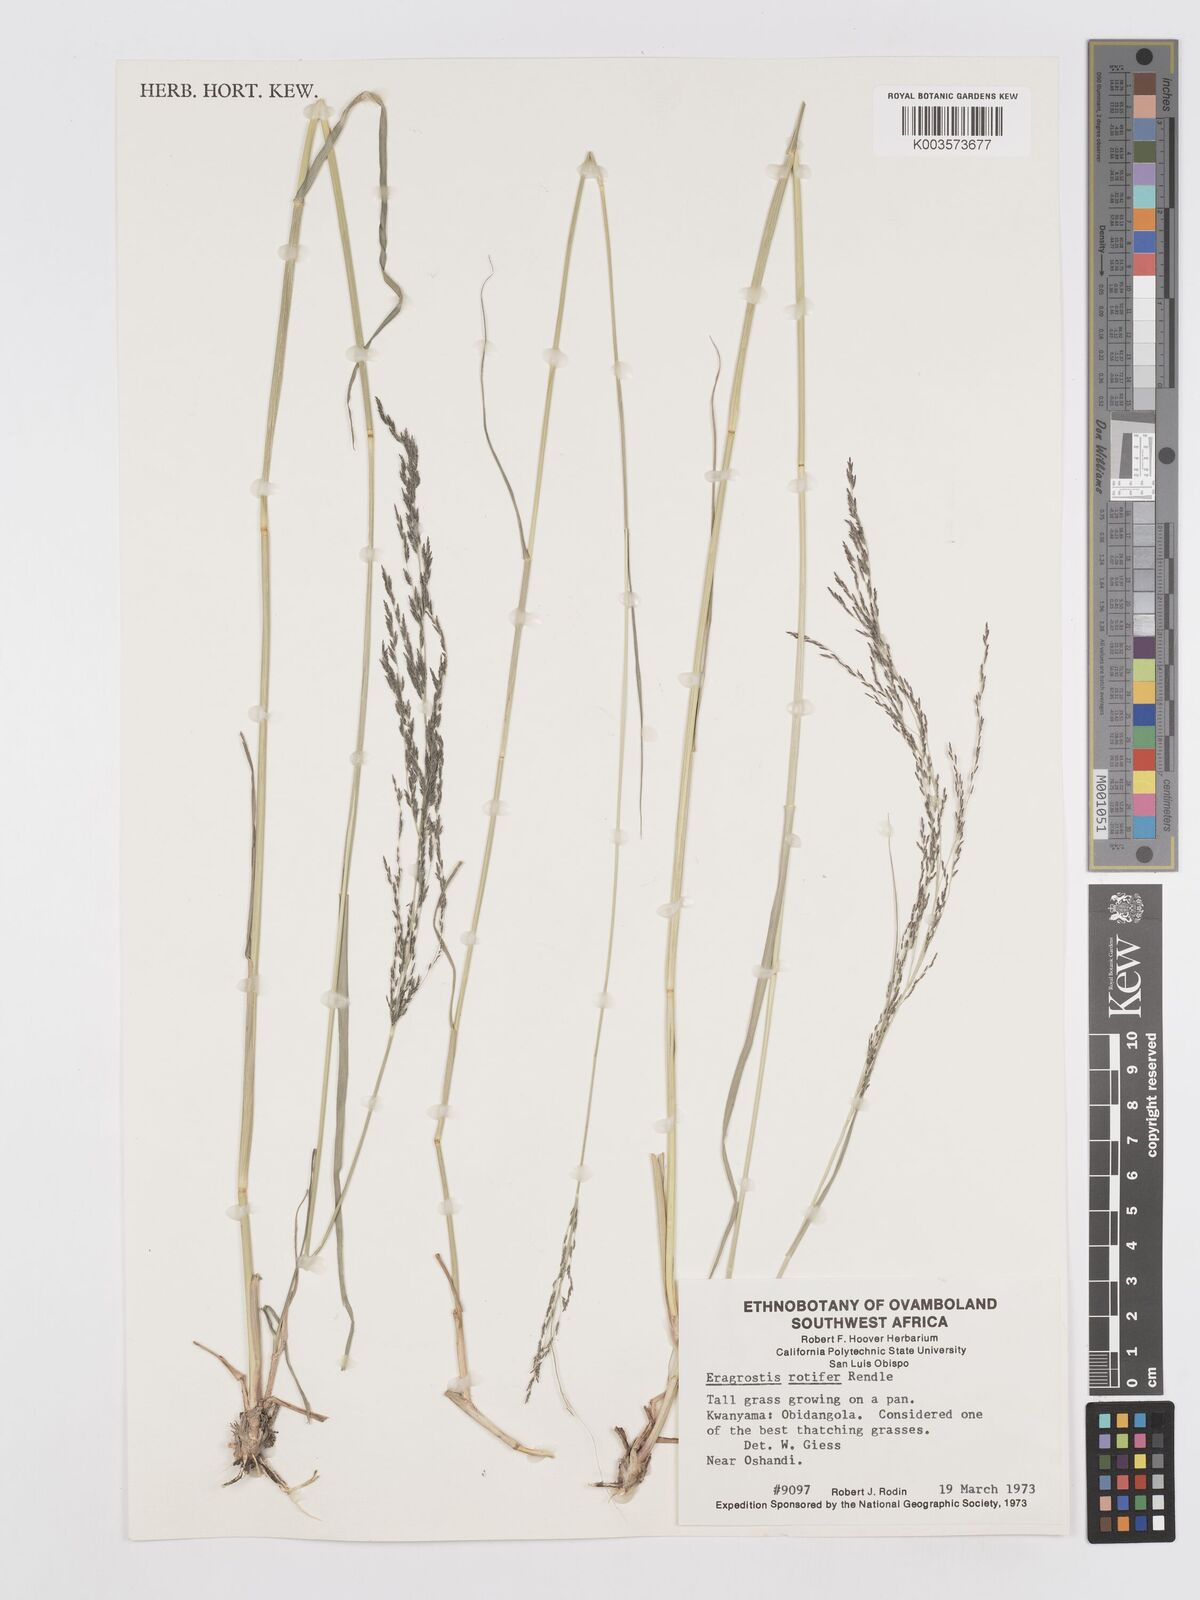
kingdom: Plantae
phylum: Tracheophyta
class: Liliopsida
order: Poales
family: Poaceae
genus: Eragrostis
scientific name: Eragrostis rotifer
